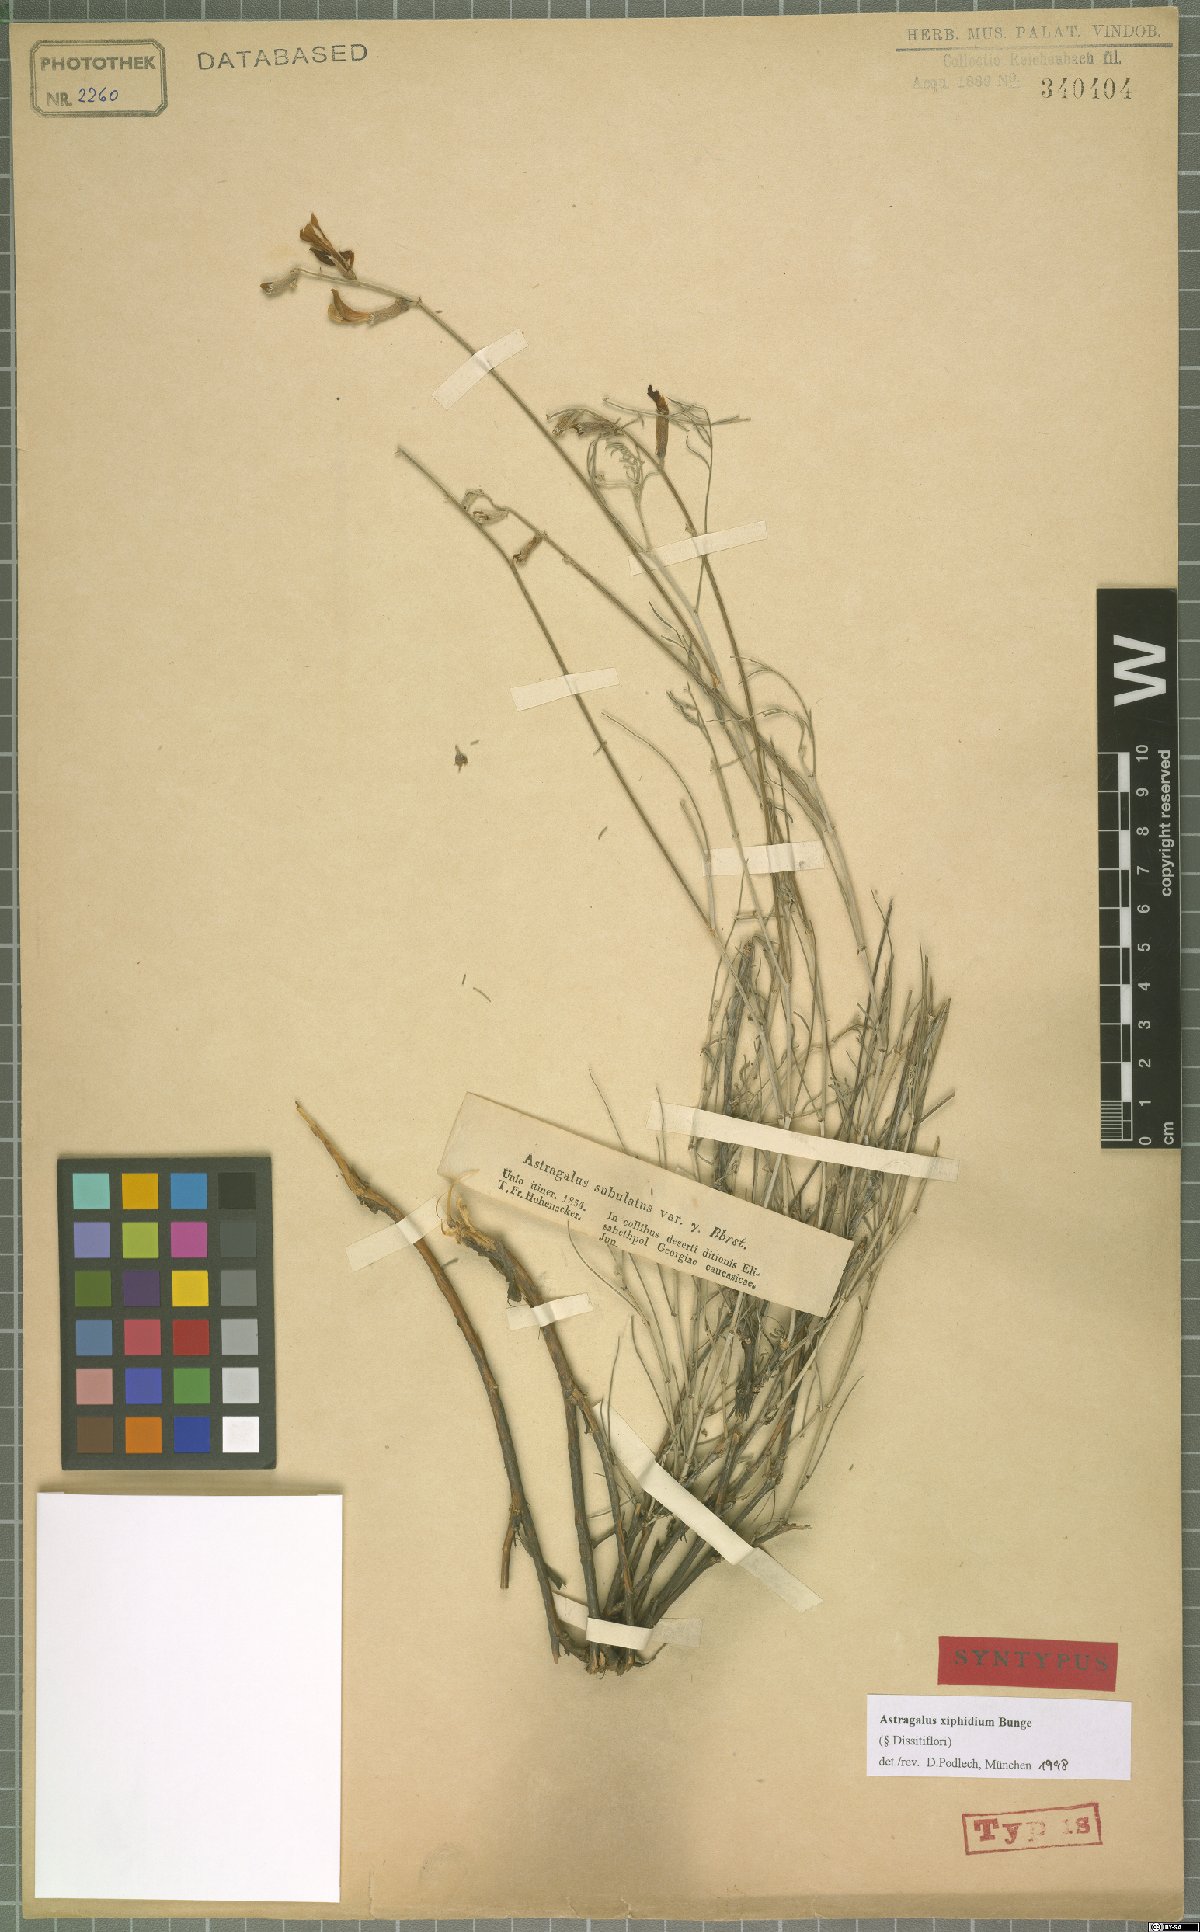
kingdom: Plantae
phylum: Tracheophyta
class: Magnoliopsida
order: Fabales
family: Fabaceae
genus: Astragalus
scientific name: Astragalus xiphidium
